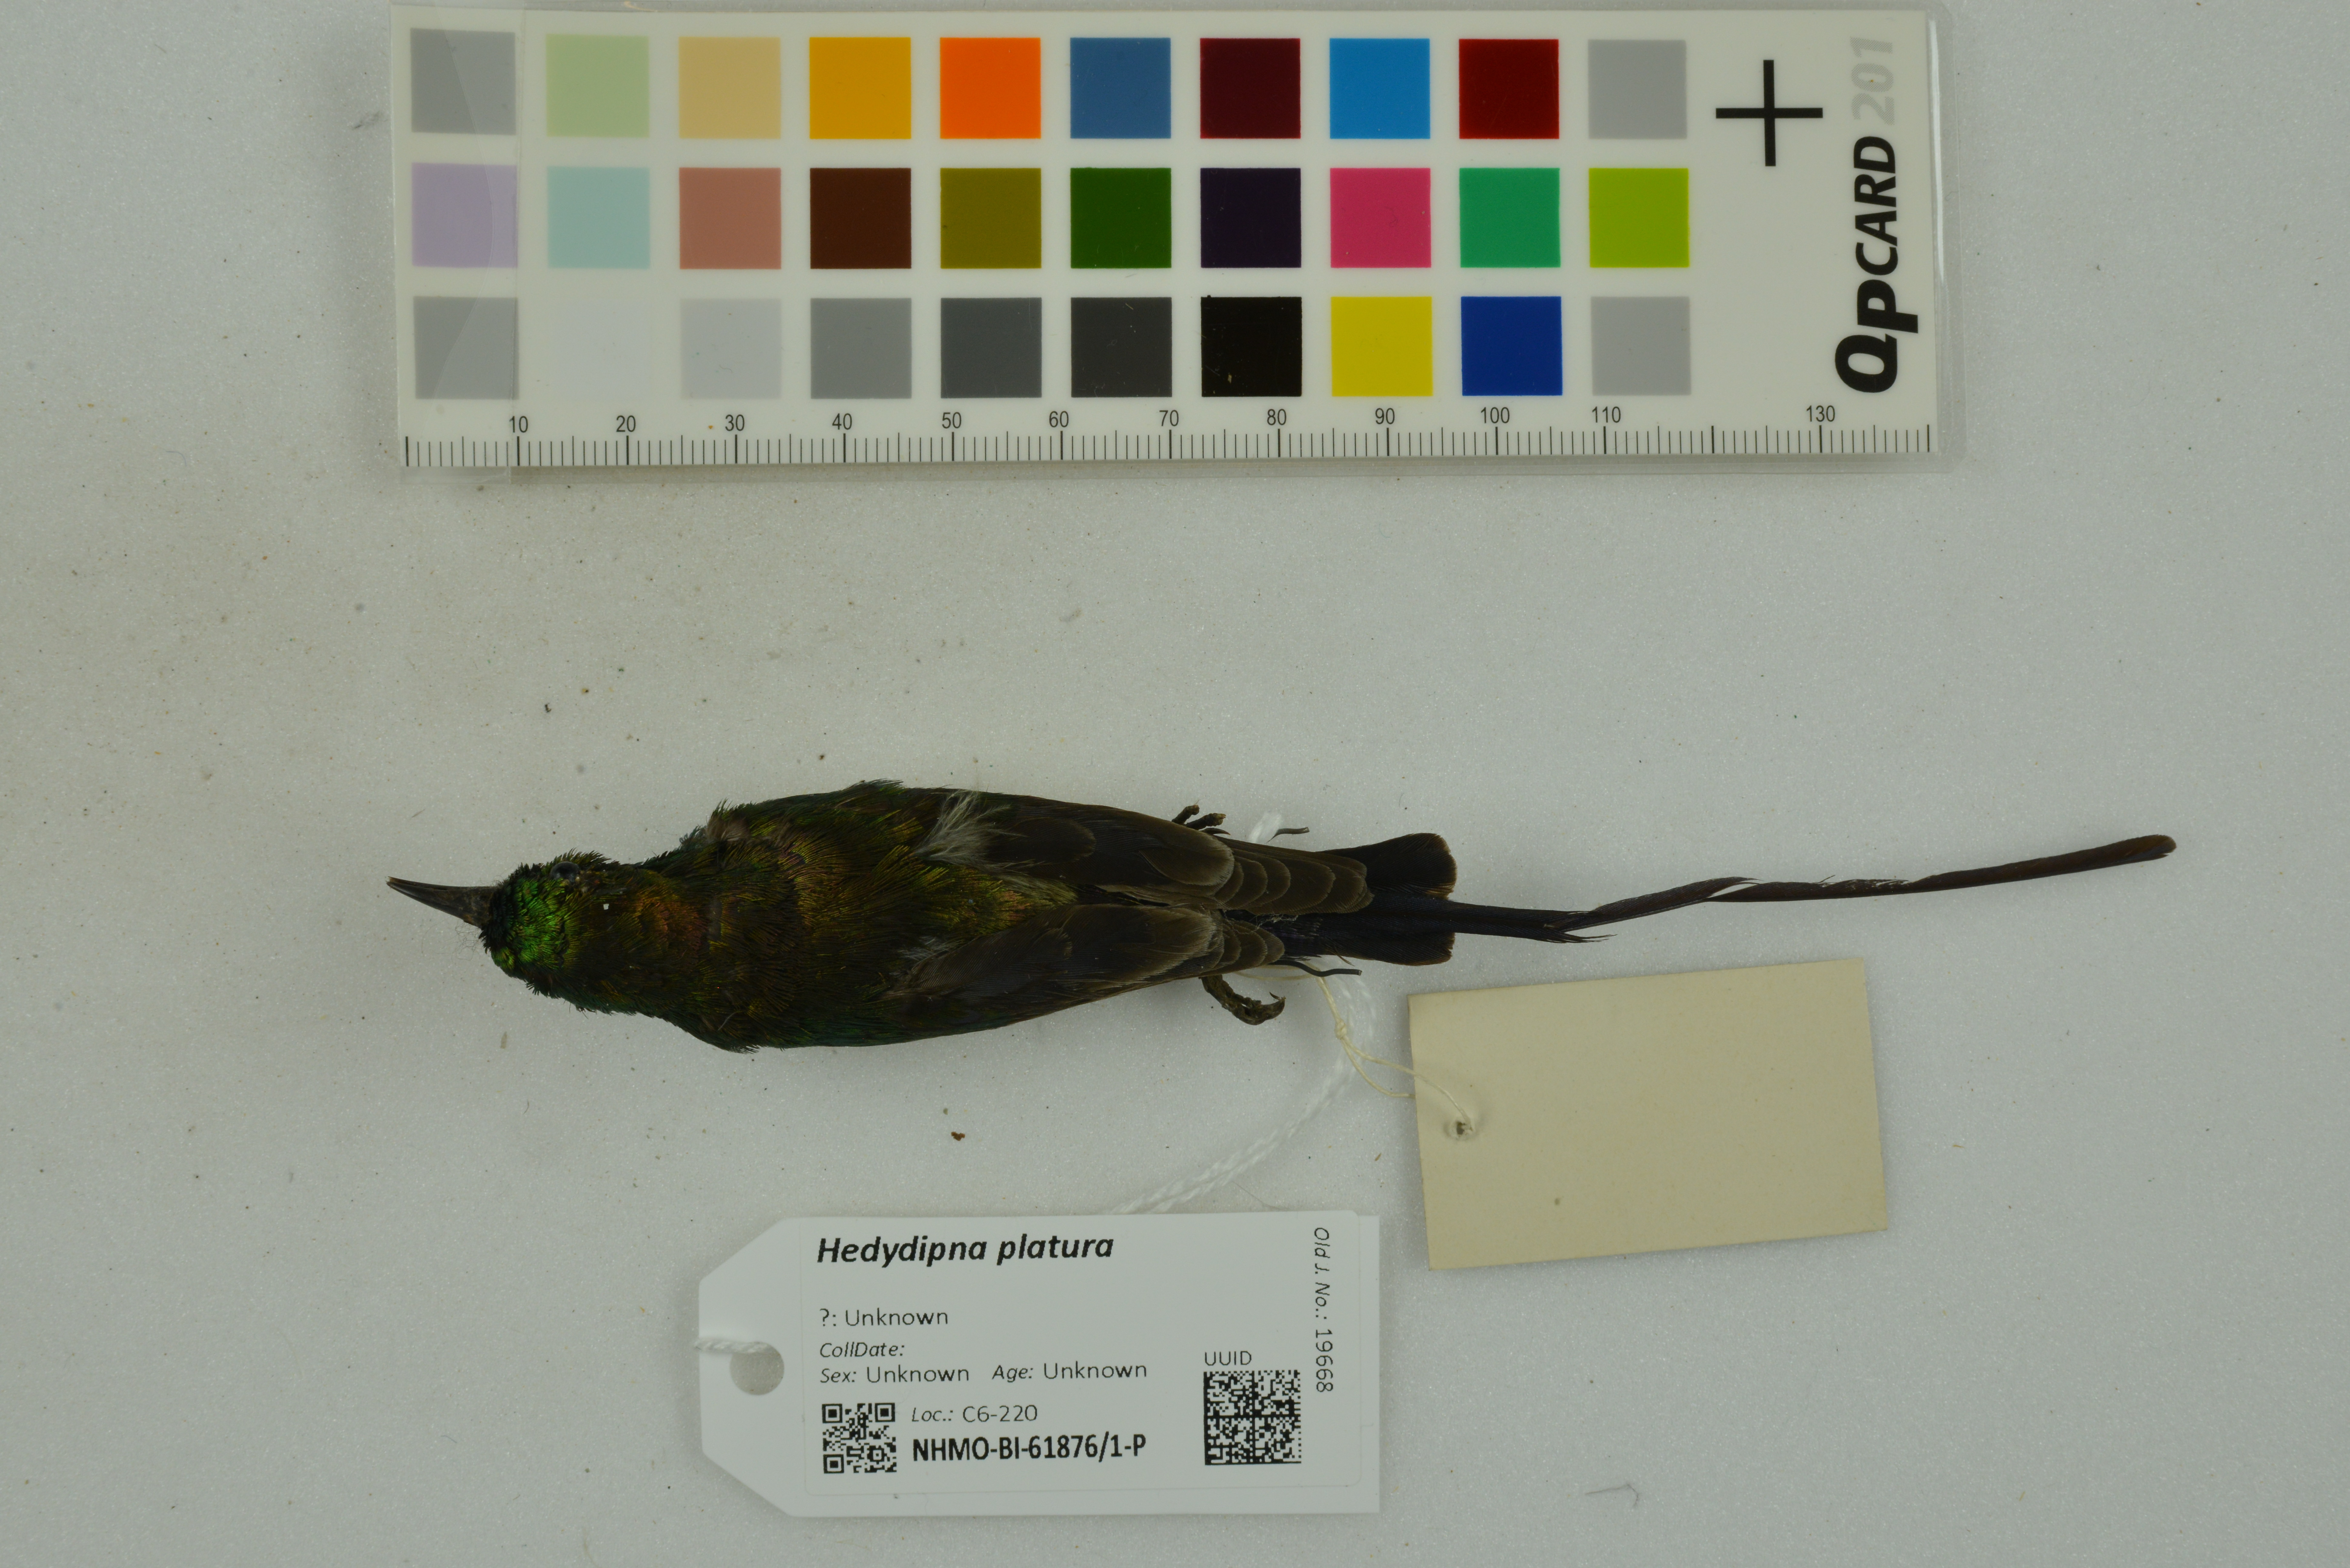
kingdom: Animalia
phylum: Chordata
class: Aves
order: Passeriformes
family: Nectariniidae
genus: Hedydipna
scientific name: Hedydipna platura
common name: Pygmy sunbird
